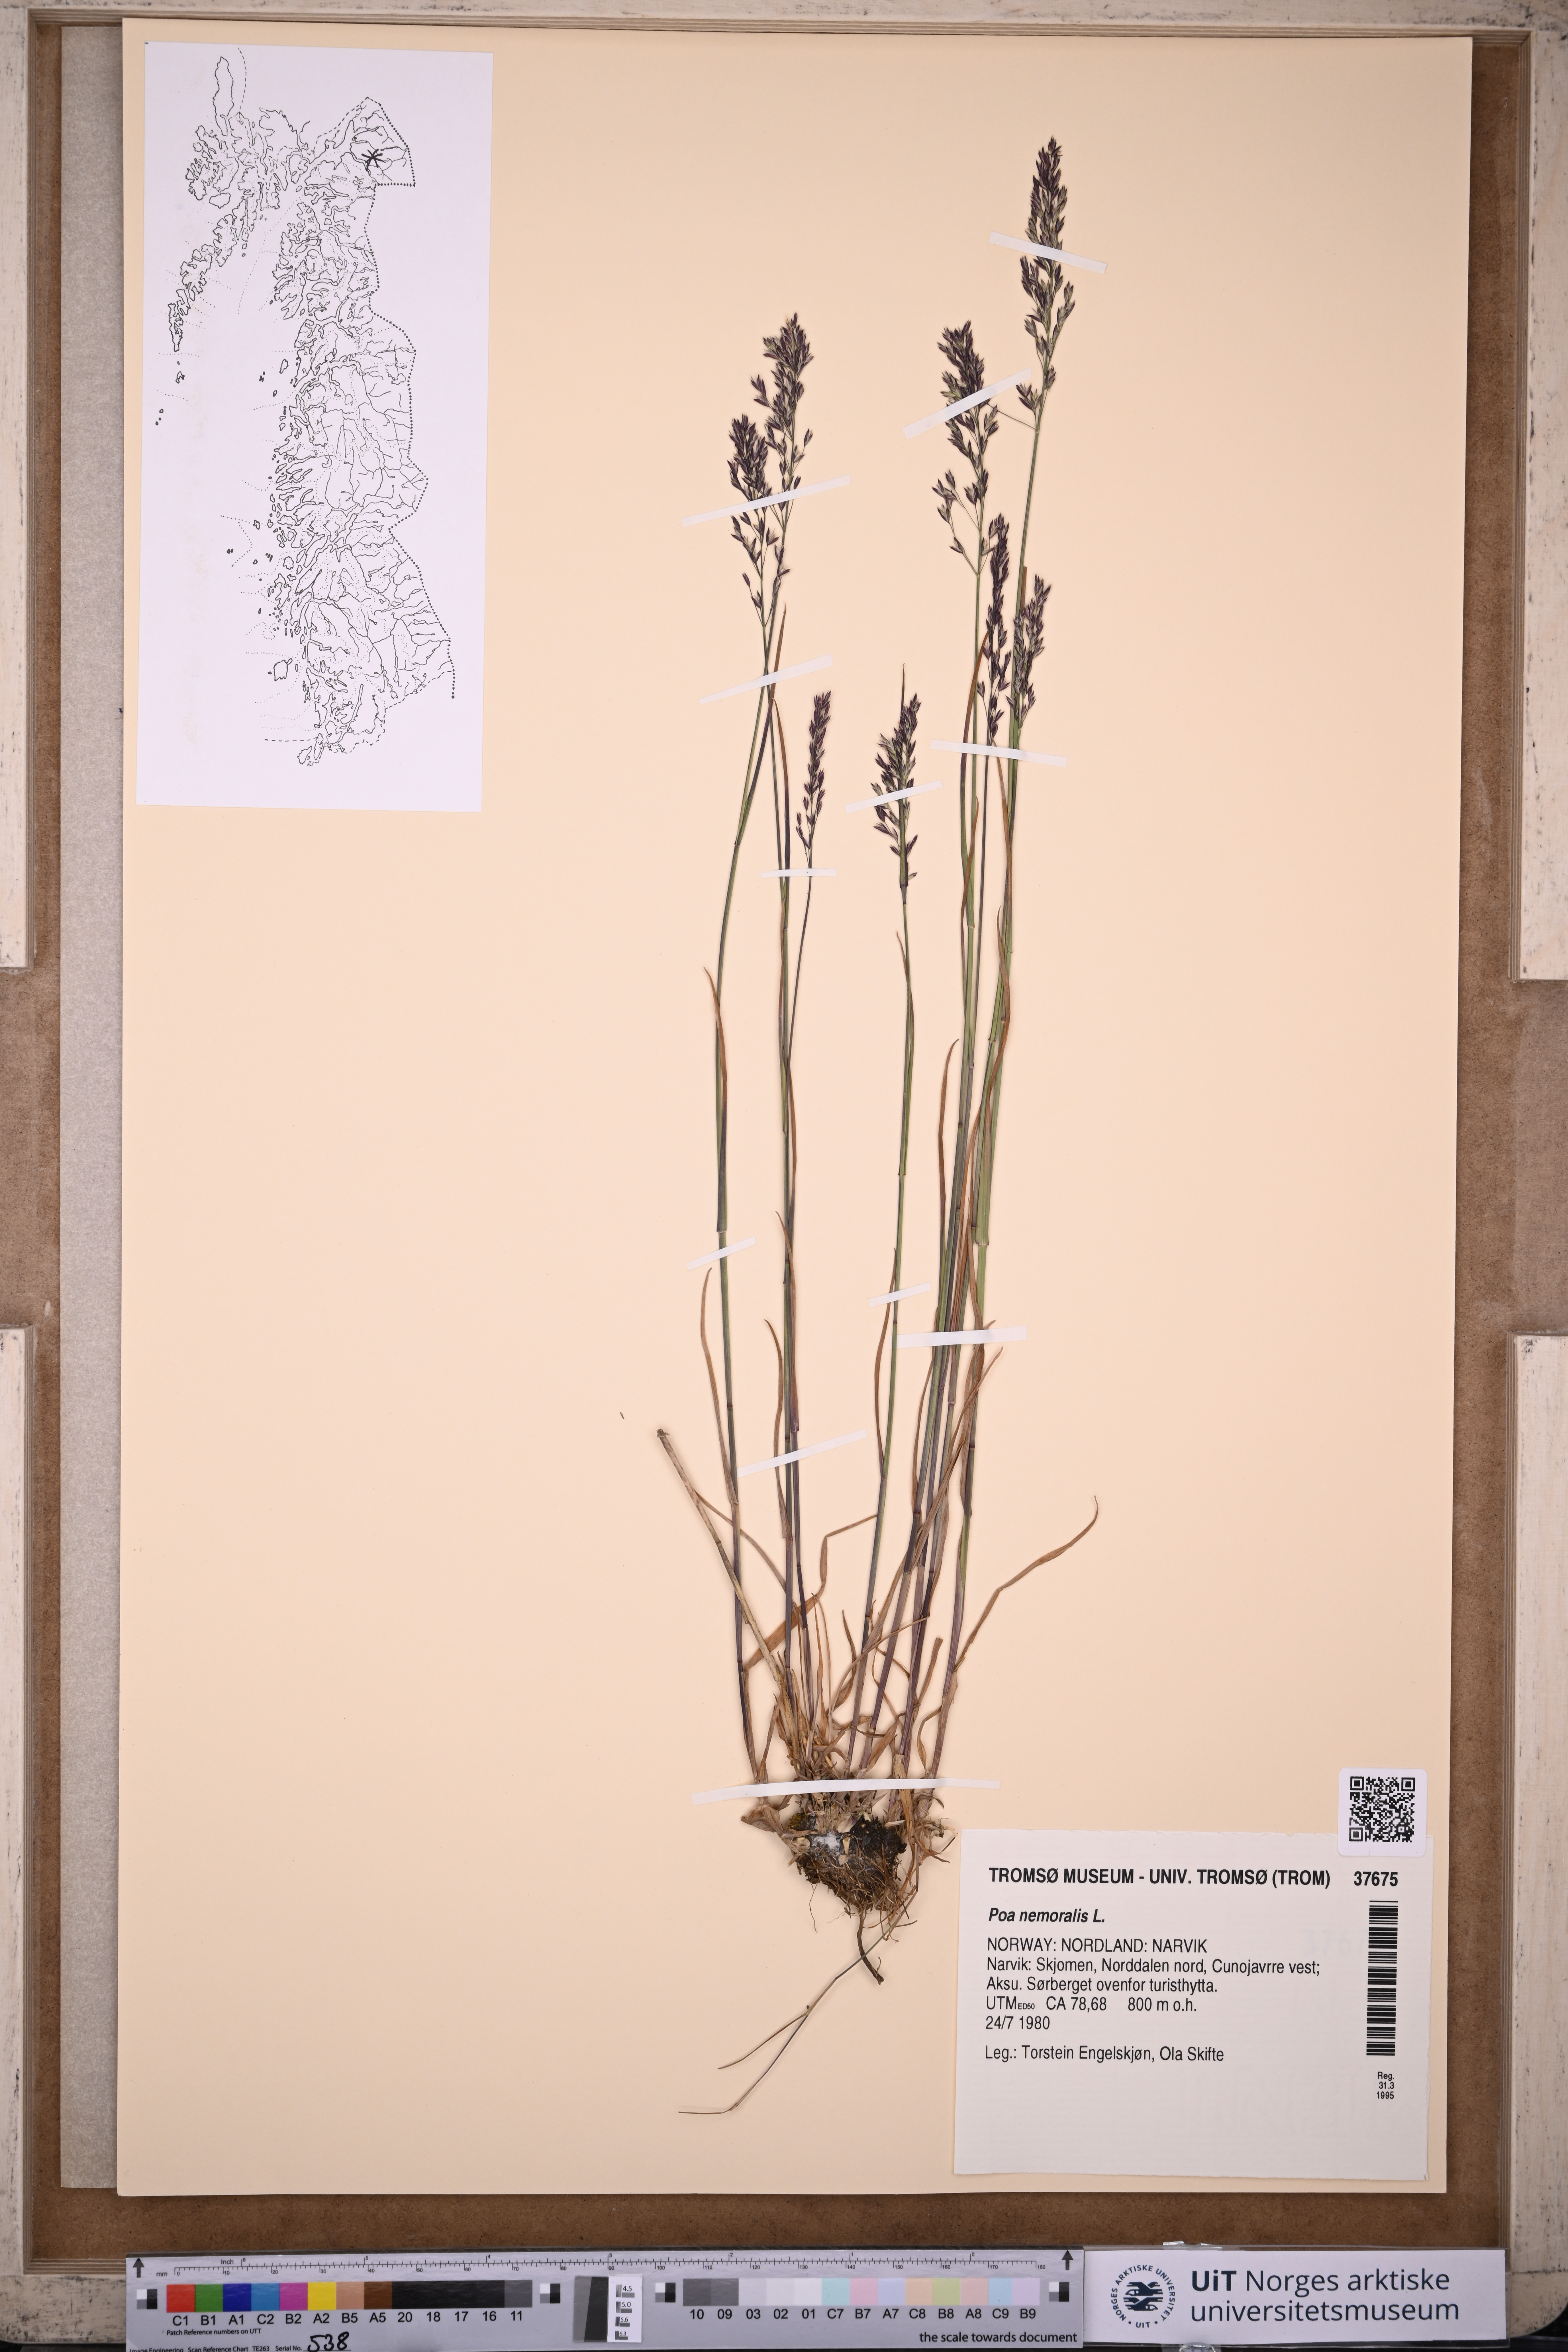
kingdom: Plantae
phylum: Tracheophyta
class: Liliopsida
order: Poales
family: Poaceae
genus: Poa
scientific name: Poa nemoralis
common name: Wood bluegrass
